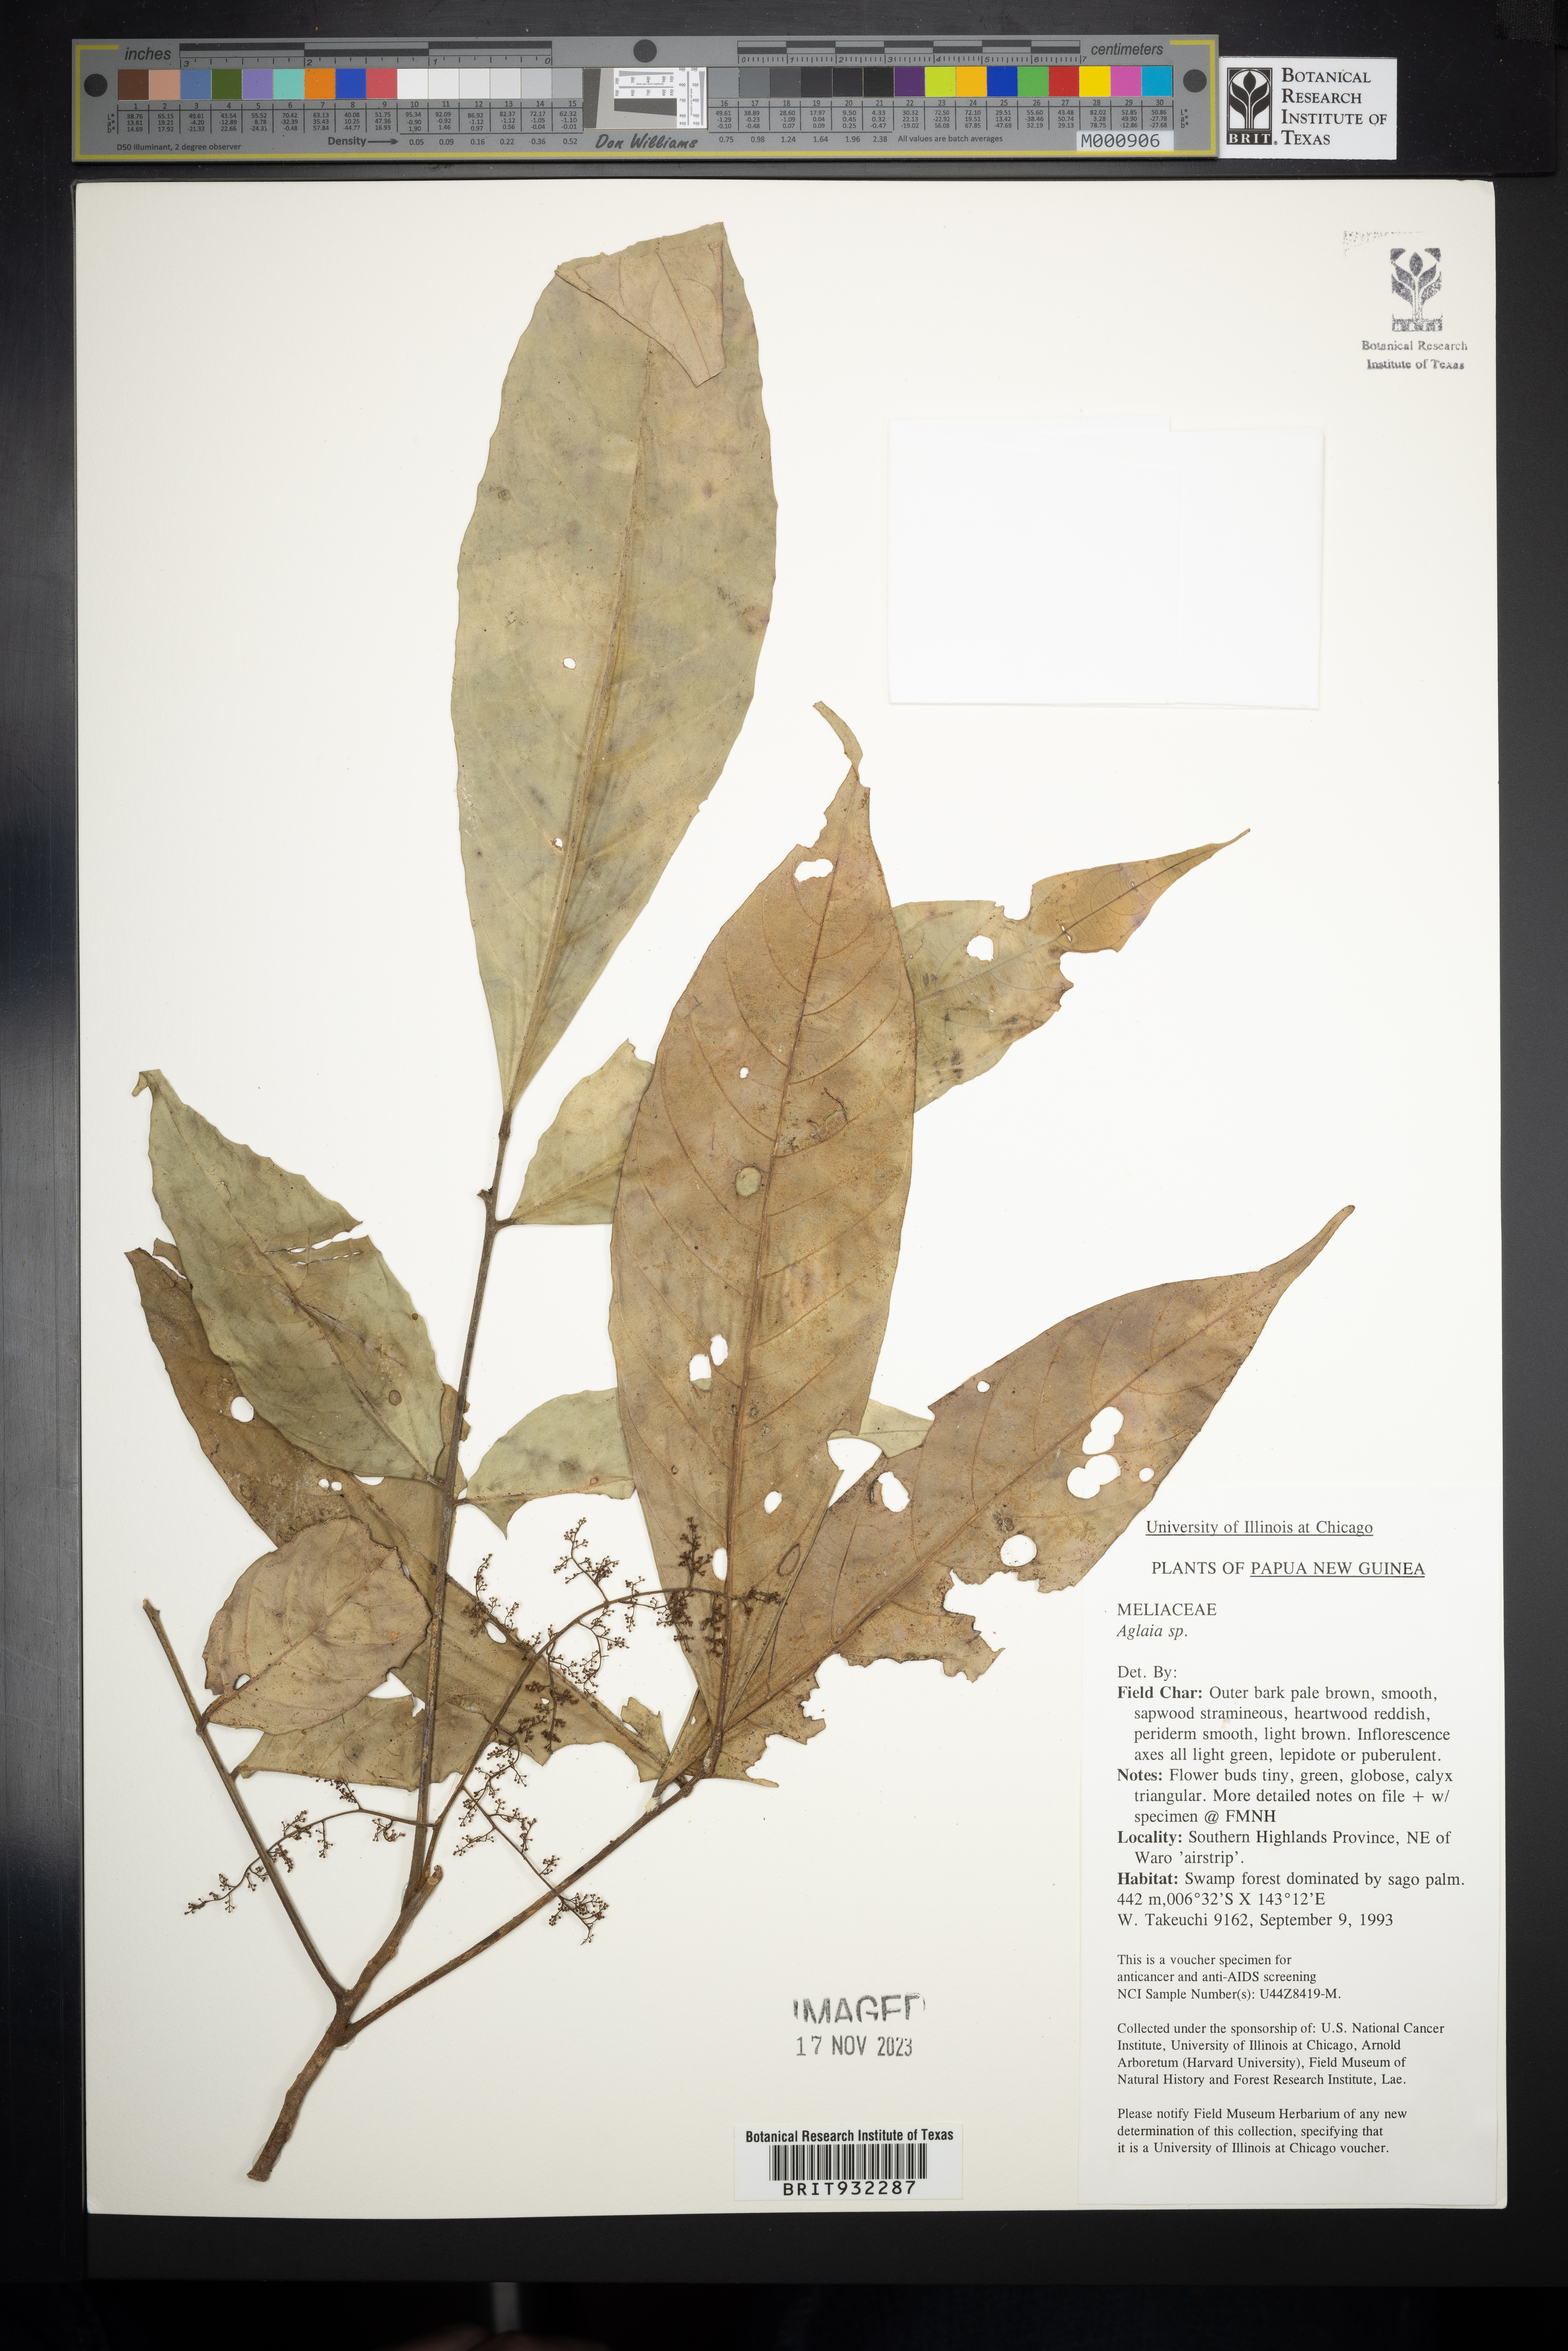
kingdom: Plantae
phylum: Tracheophyta
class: Magnoliopsida
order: Sapindales
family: Meliaceae
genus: Aglaia
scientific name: Aglaia
